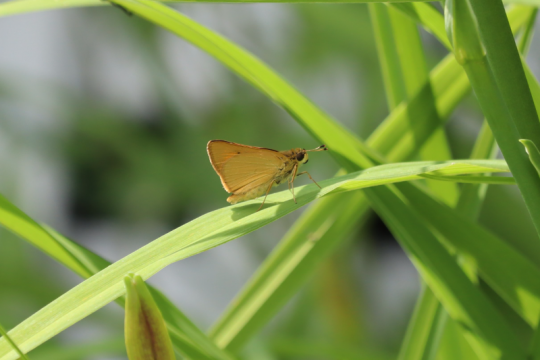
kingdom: Animalia
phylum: Arthropoda
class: Insecta
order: Lepidoptera
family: Hesperiidae
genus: Atrytone
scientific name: Atrytone delaware
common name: Delaware Skipper
